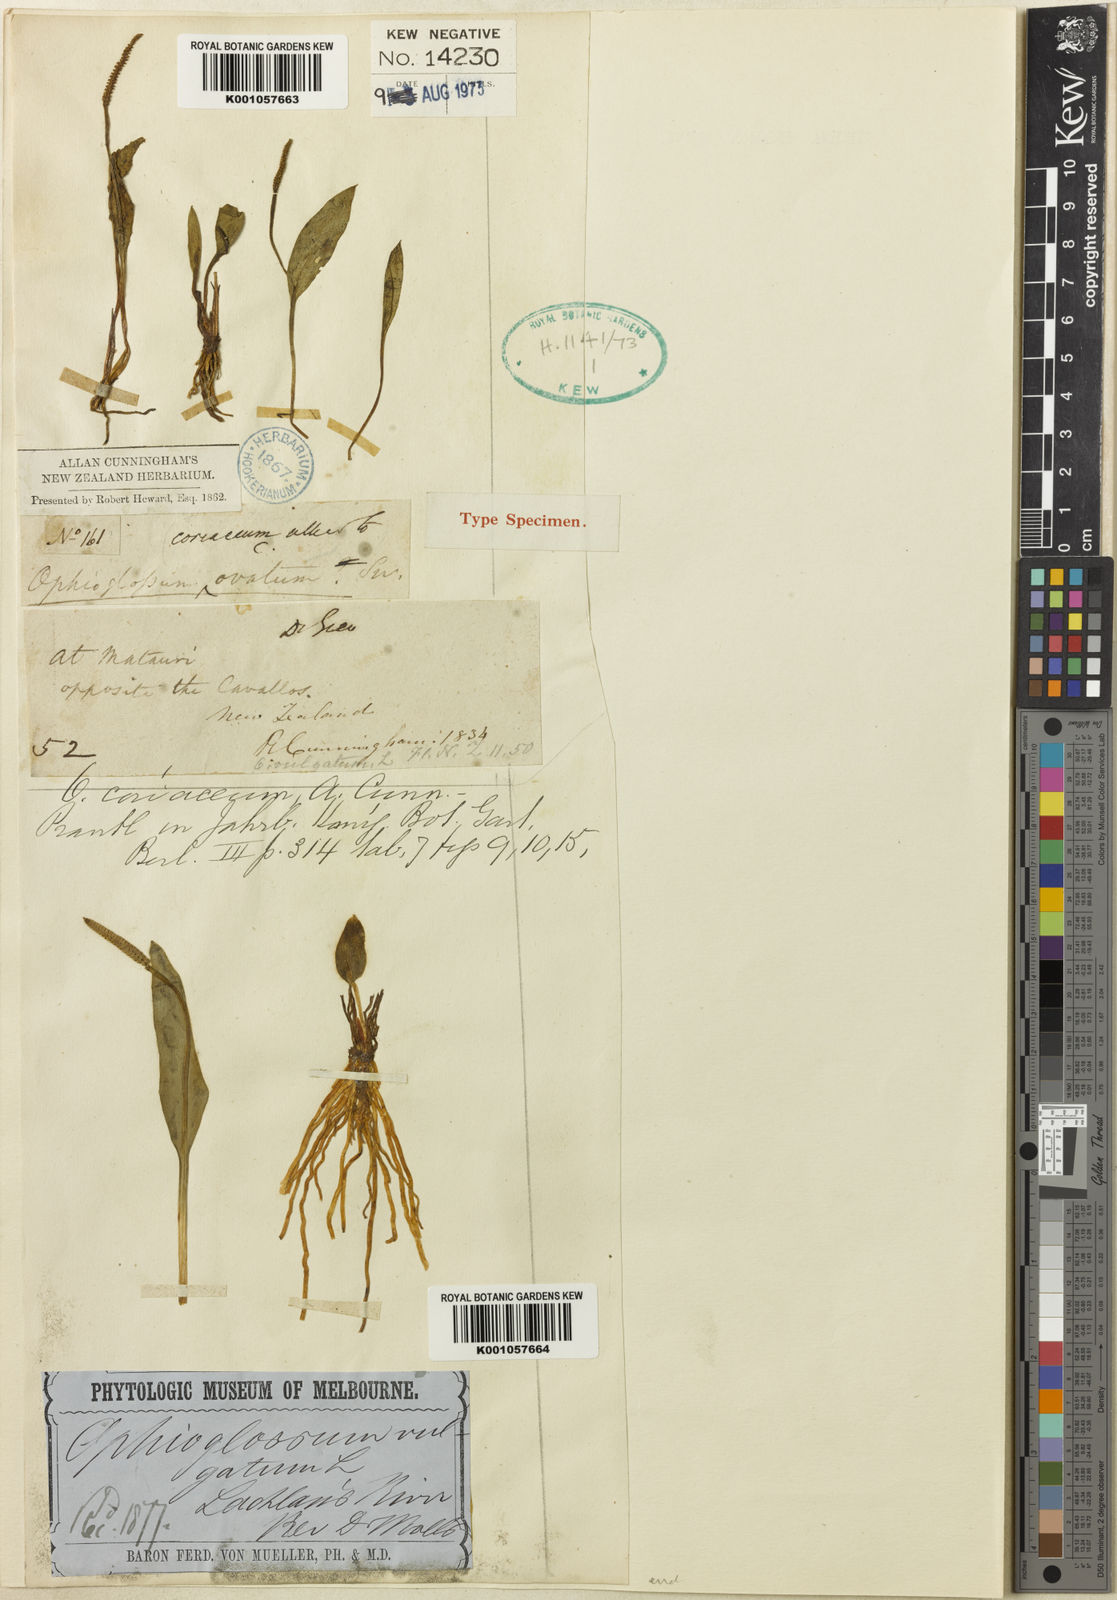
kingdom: Plantae
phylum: Tracheophyta
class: Polypodiopsida
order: Ophioglossales
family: Ophioglossaceae
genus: Ophioglossum
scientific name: Ophioglossum coriaceum
